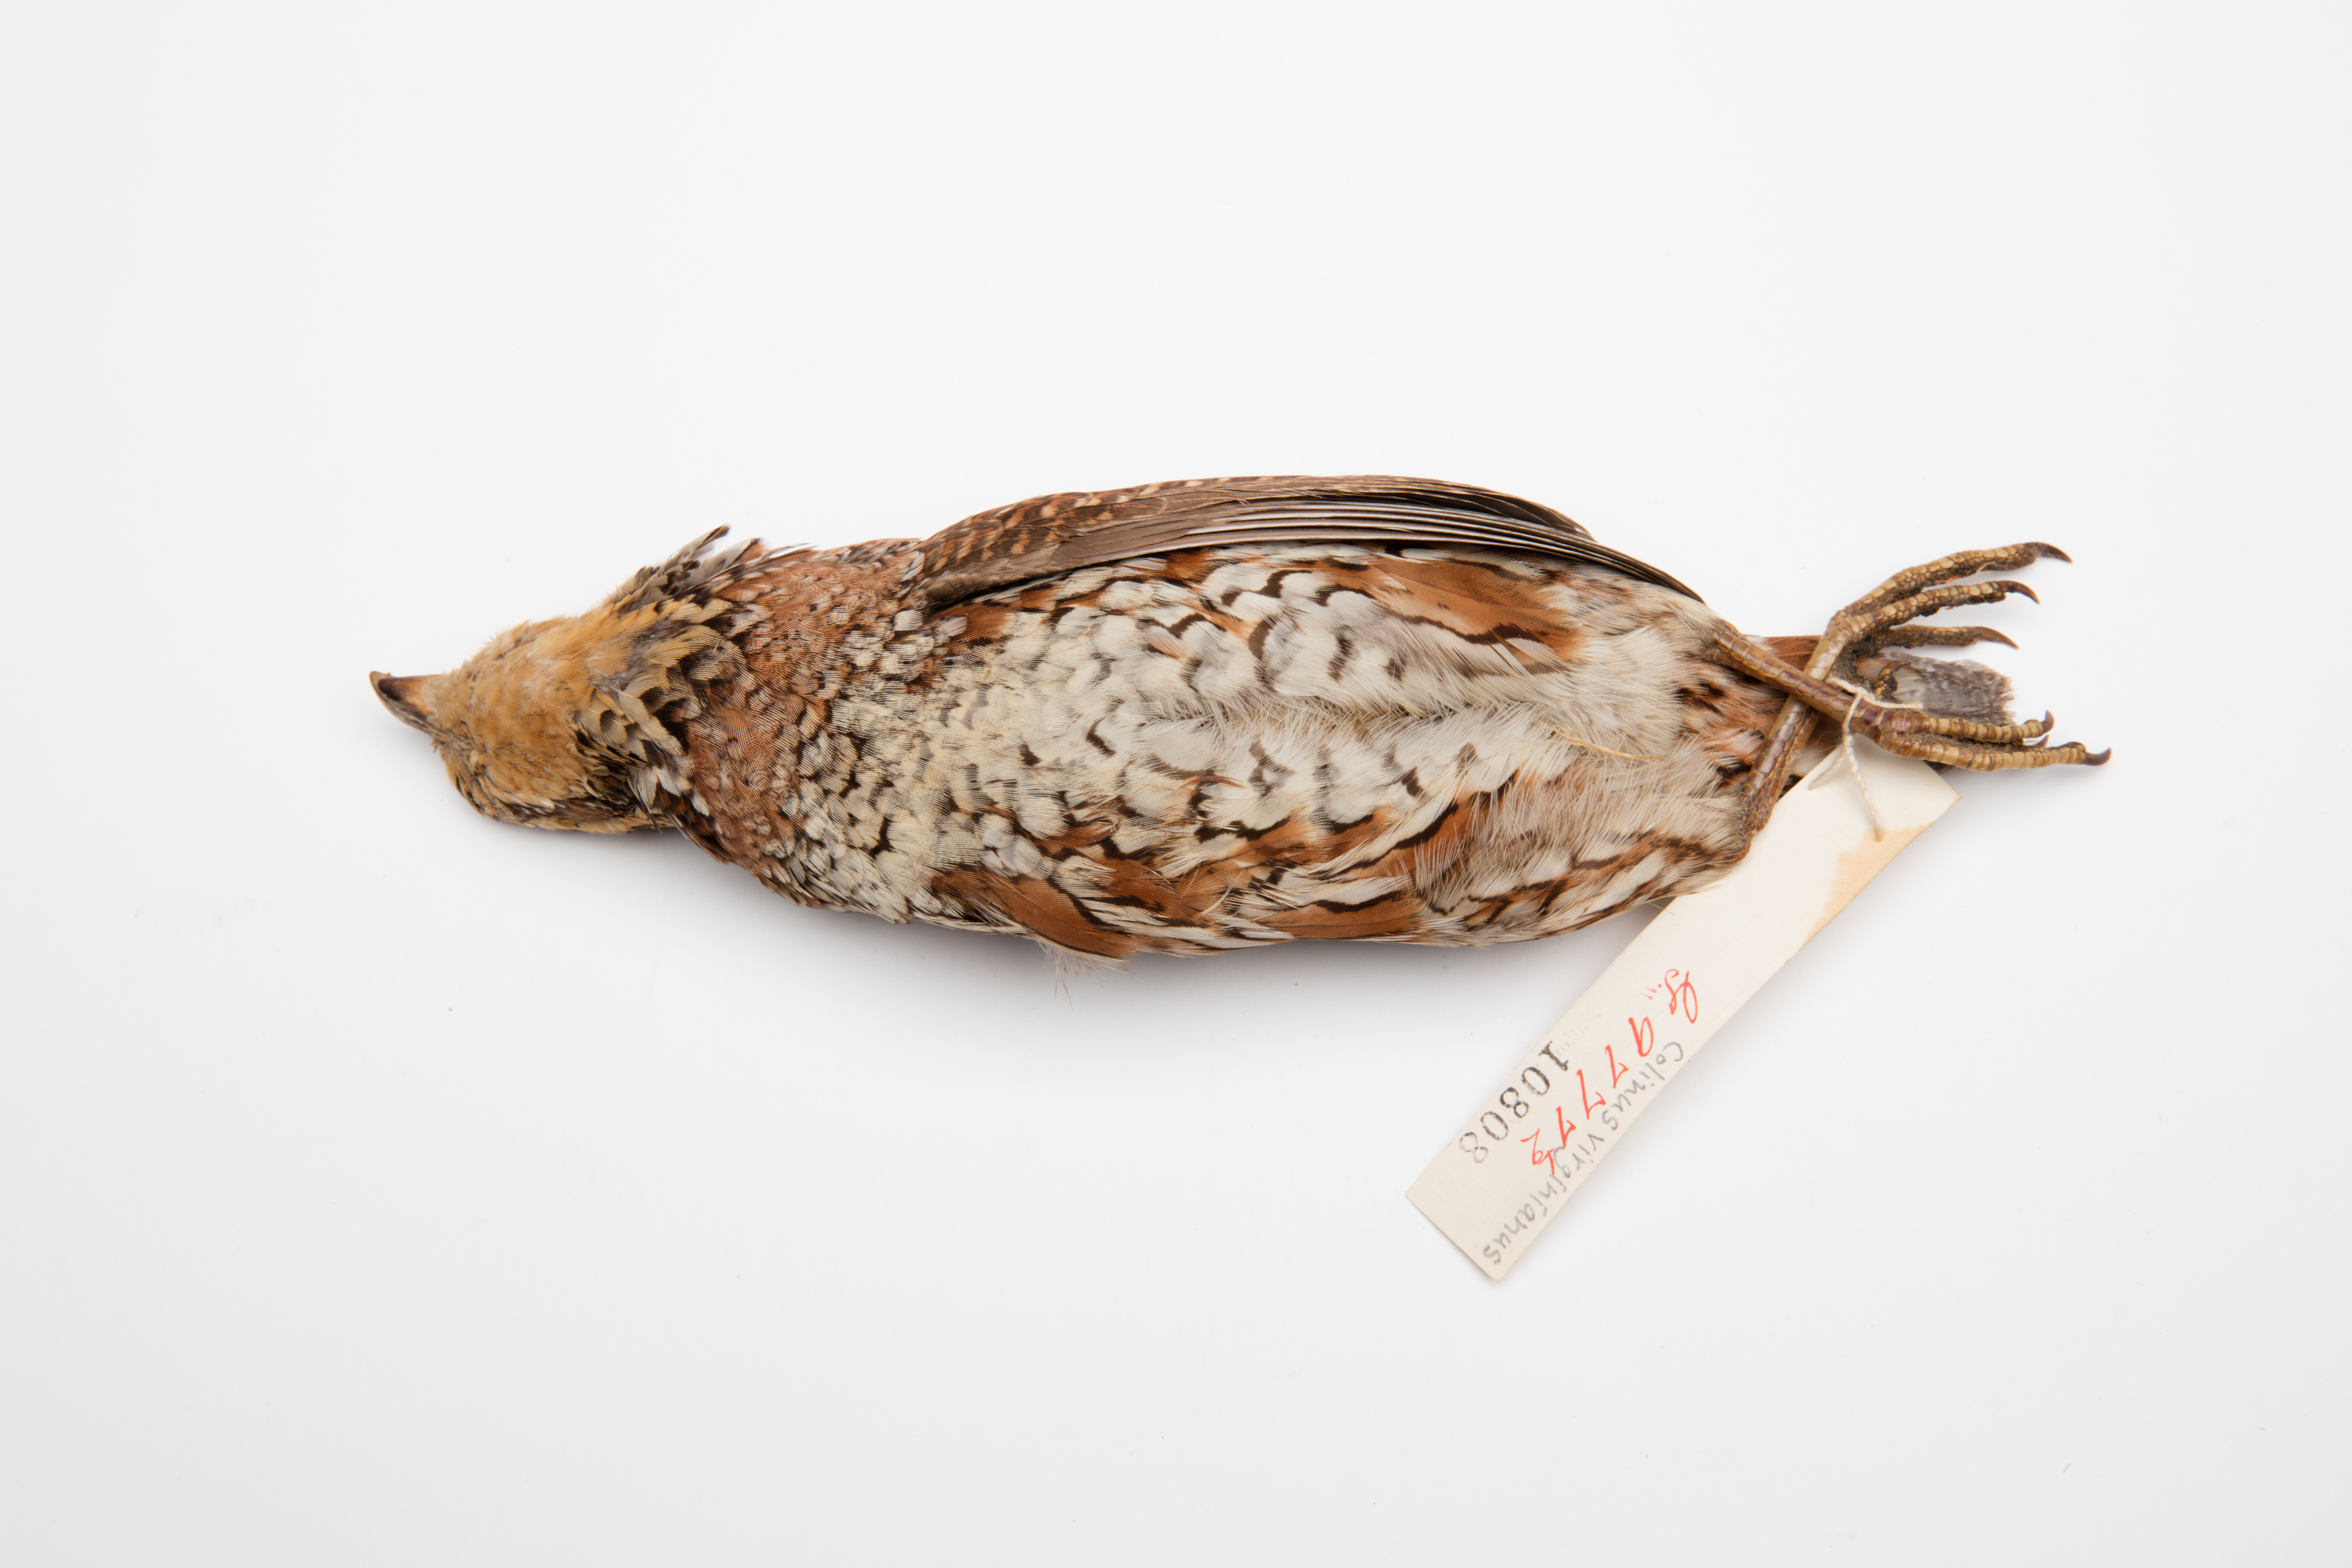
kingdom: Animalia
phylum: Chordata
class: Aves
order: Galliformes
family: Odontophoridae
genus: Colinus
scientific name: Colinus virginianus
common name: Northern bobwhite
